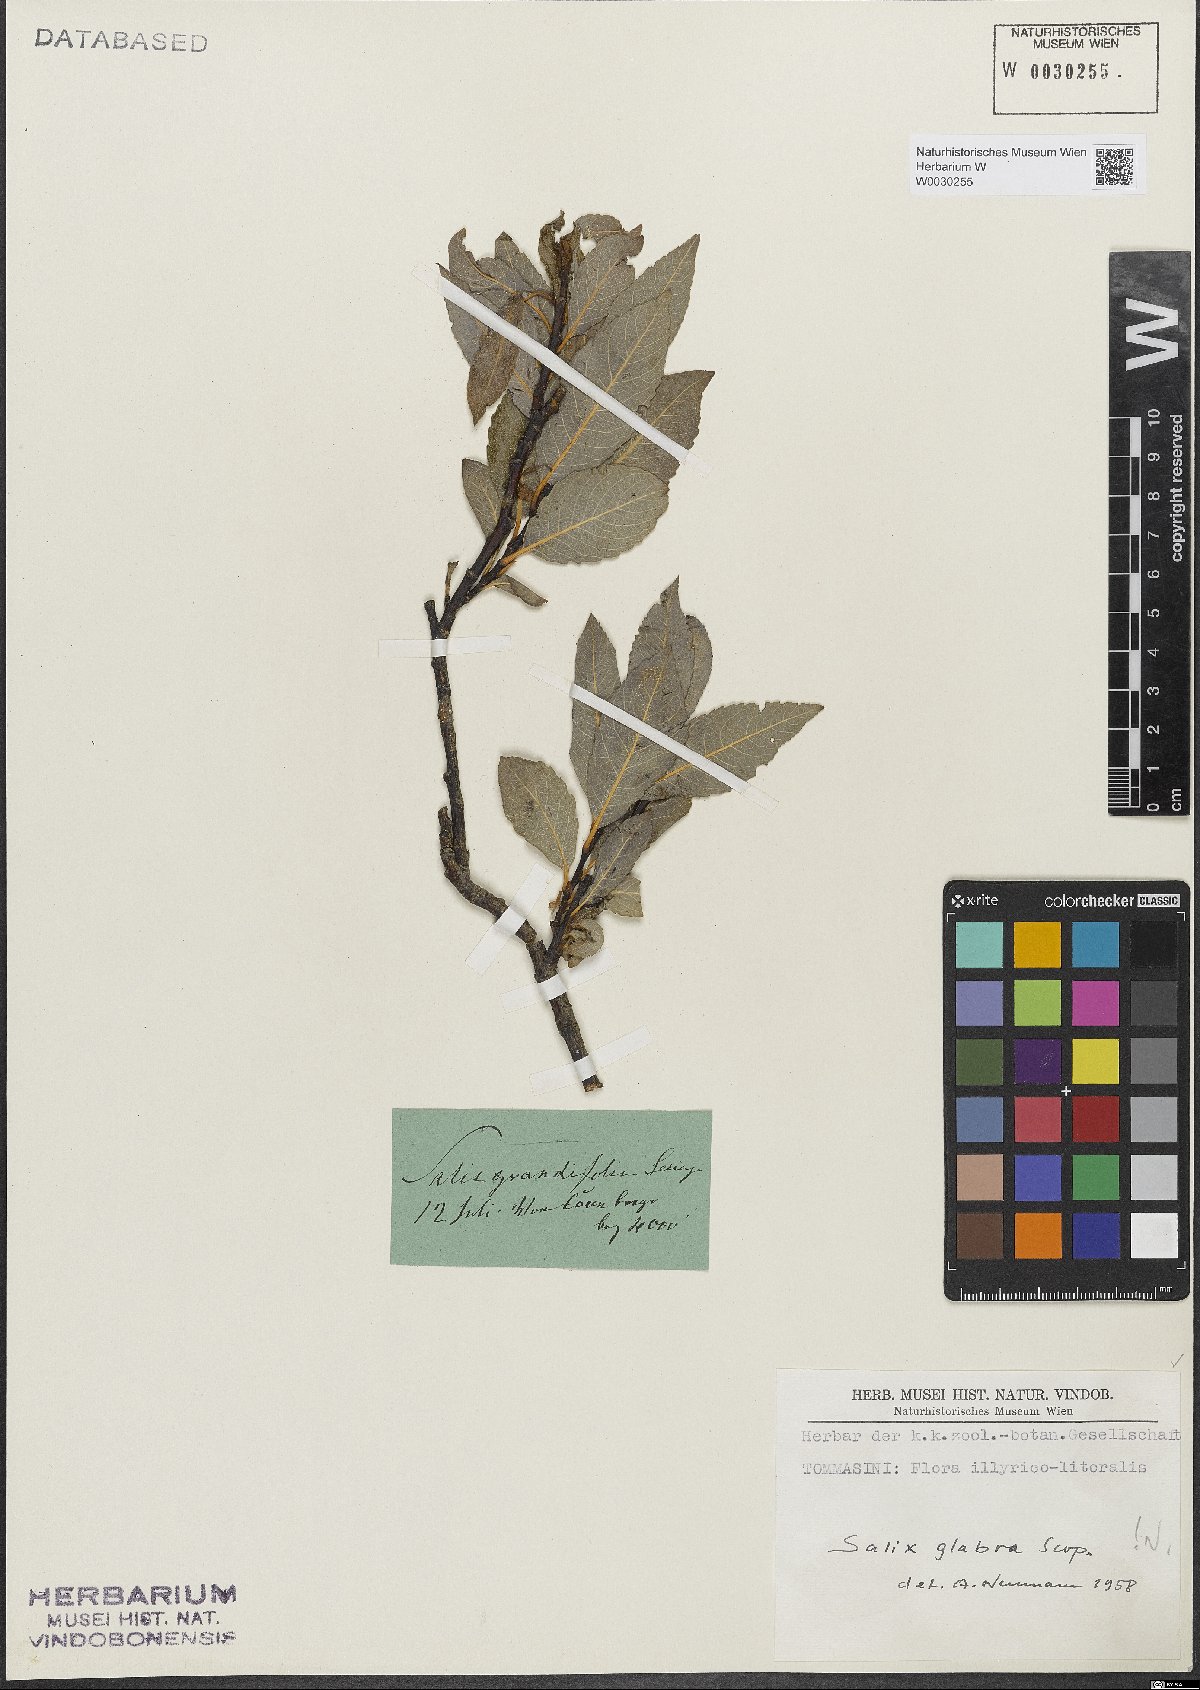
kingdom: Plantae
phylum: Tracheophyta
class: Magnoliopsida
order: Malpighiales
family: Salicaceae
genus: Salix
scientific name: Salix glabra
